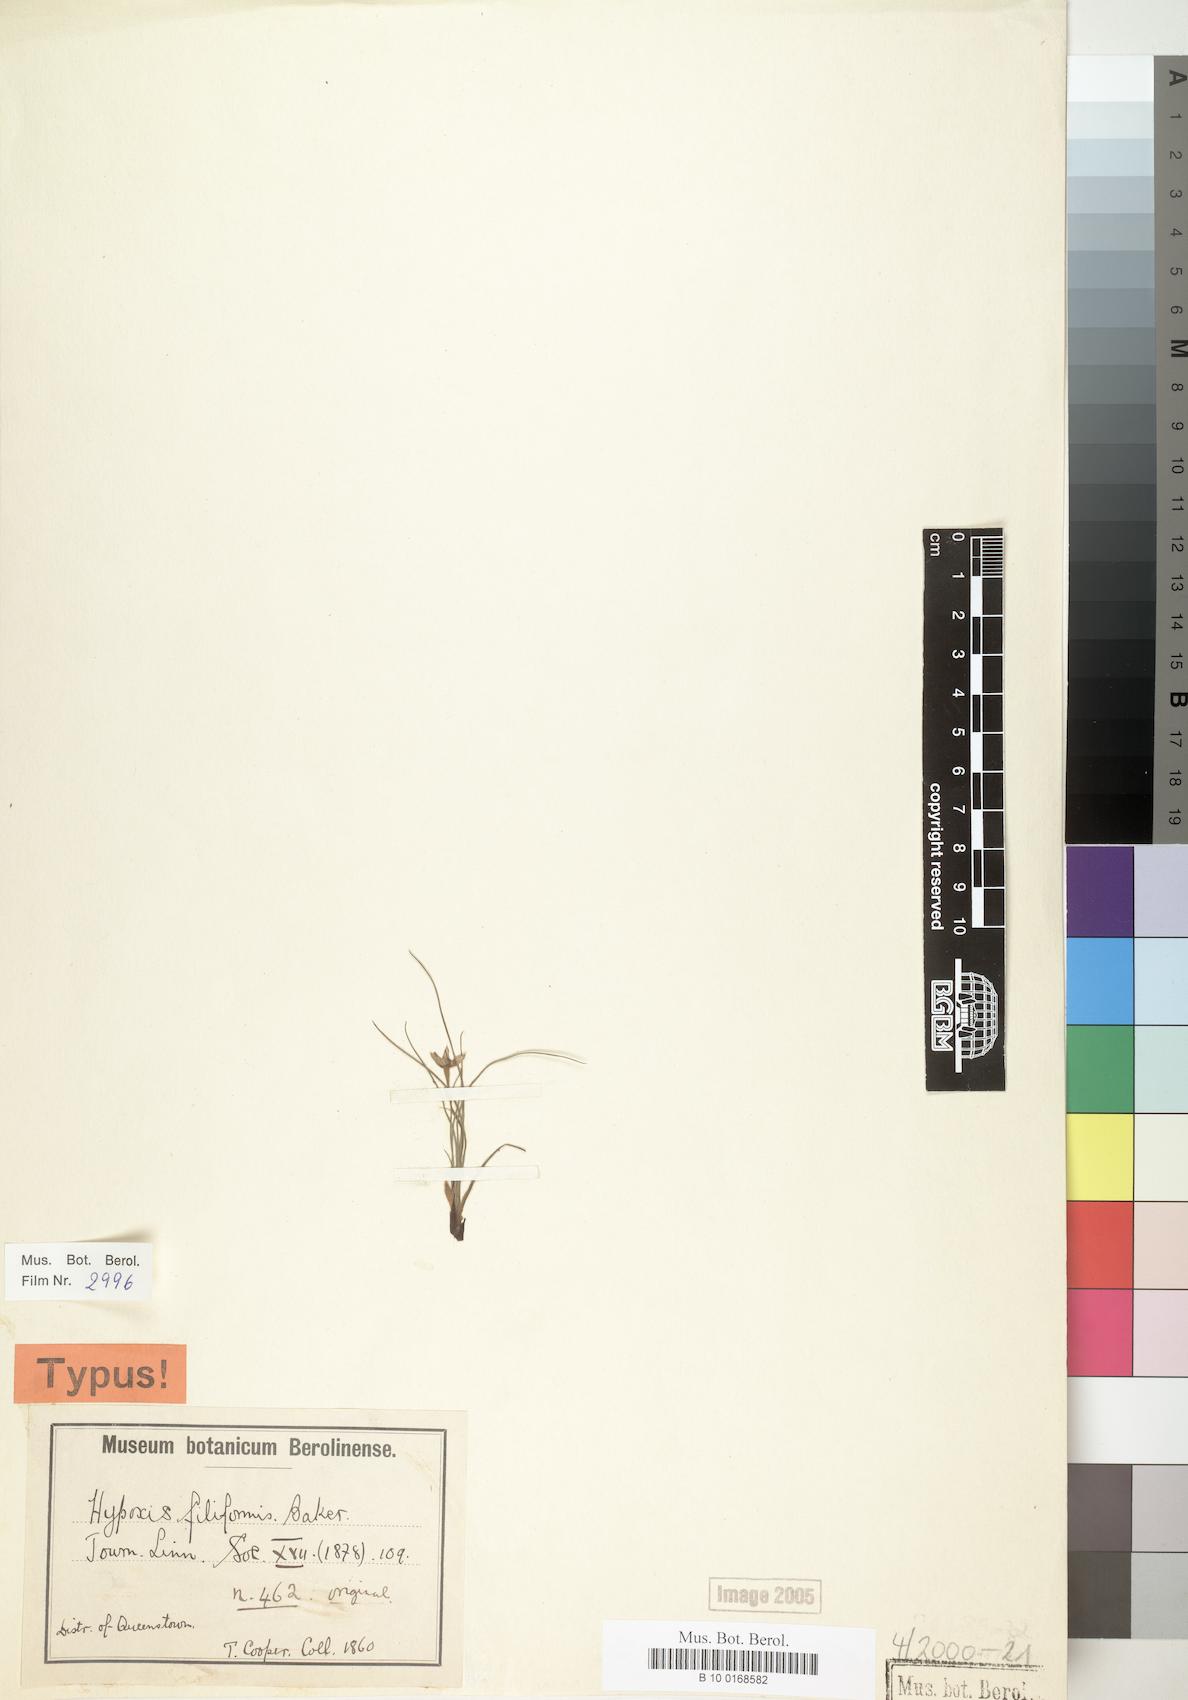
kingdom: Plantae
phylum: Tracheophyta
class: Liliopsida
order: Asparagales
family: Hypoxidaceae
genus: Hypoxis
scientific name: Hypoxis filiformis
